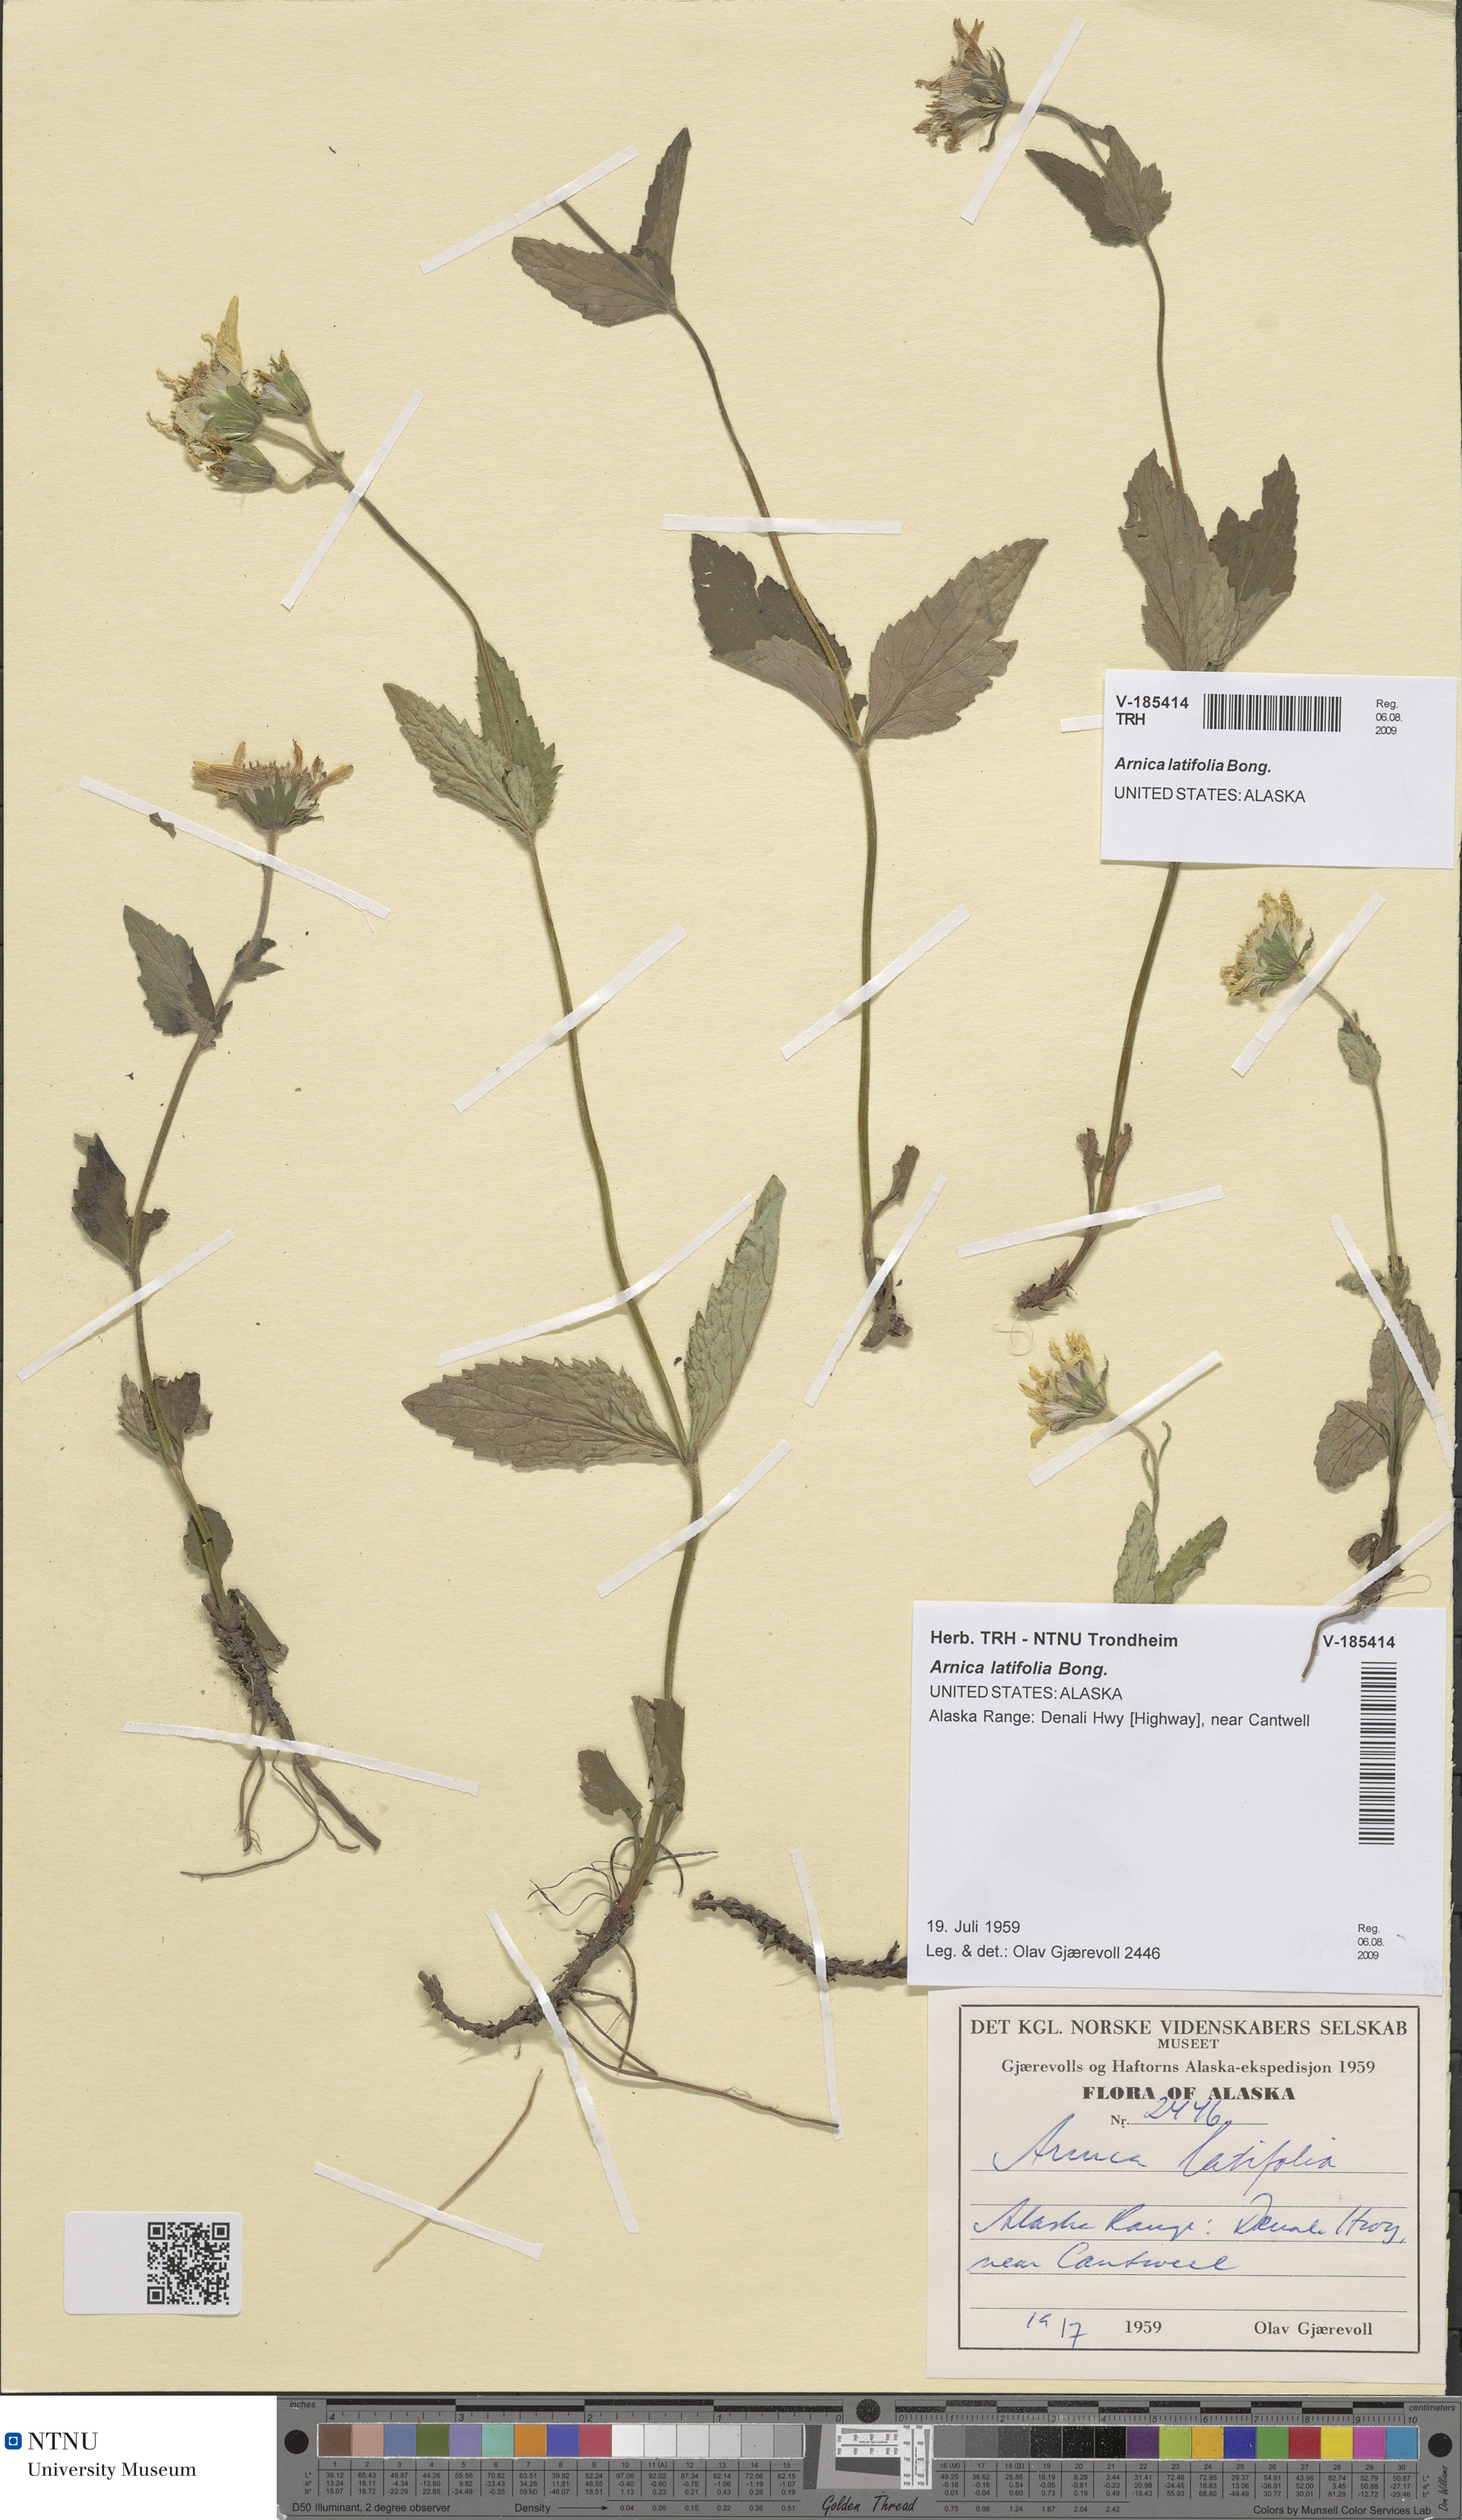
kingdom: Plantae
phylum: Tracheophyta
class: Magnoliopsida
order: Asterales
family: Asteraceae
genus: Arnica
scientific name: Arnica latifolia
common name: Arnica
